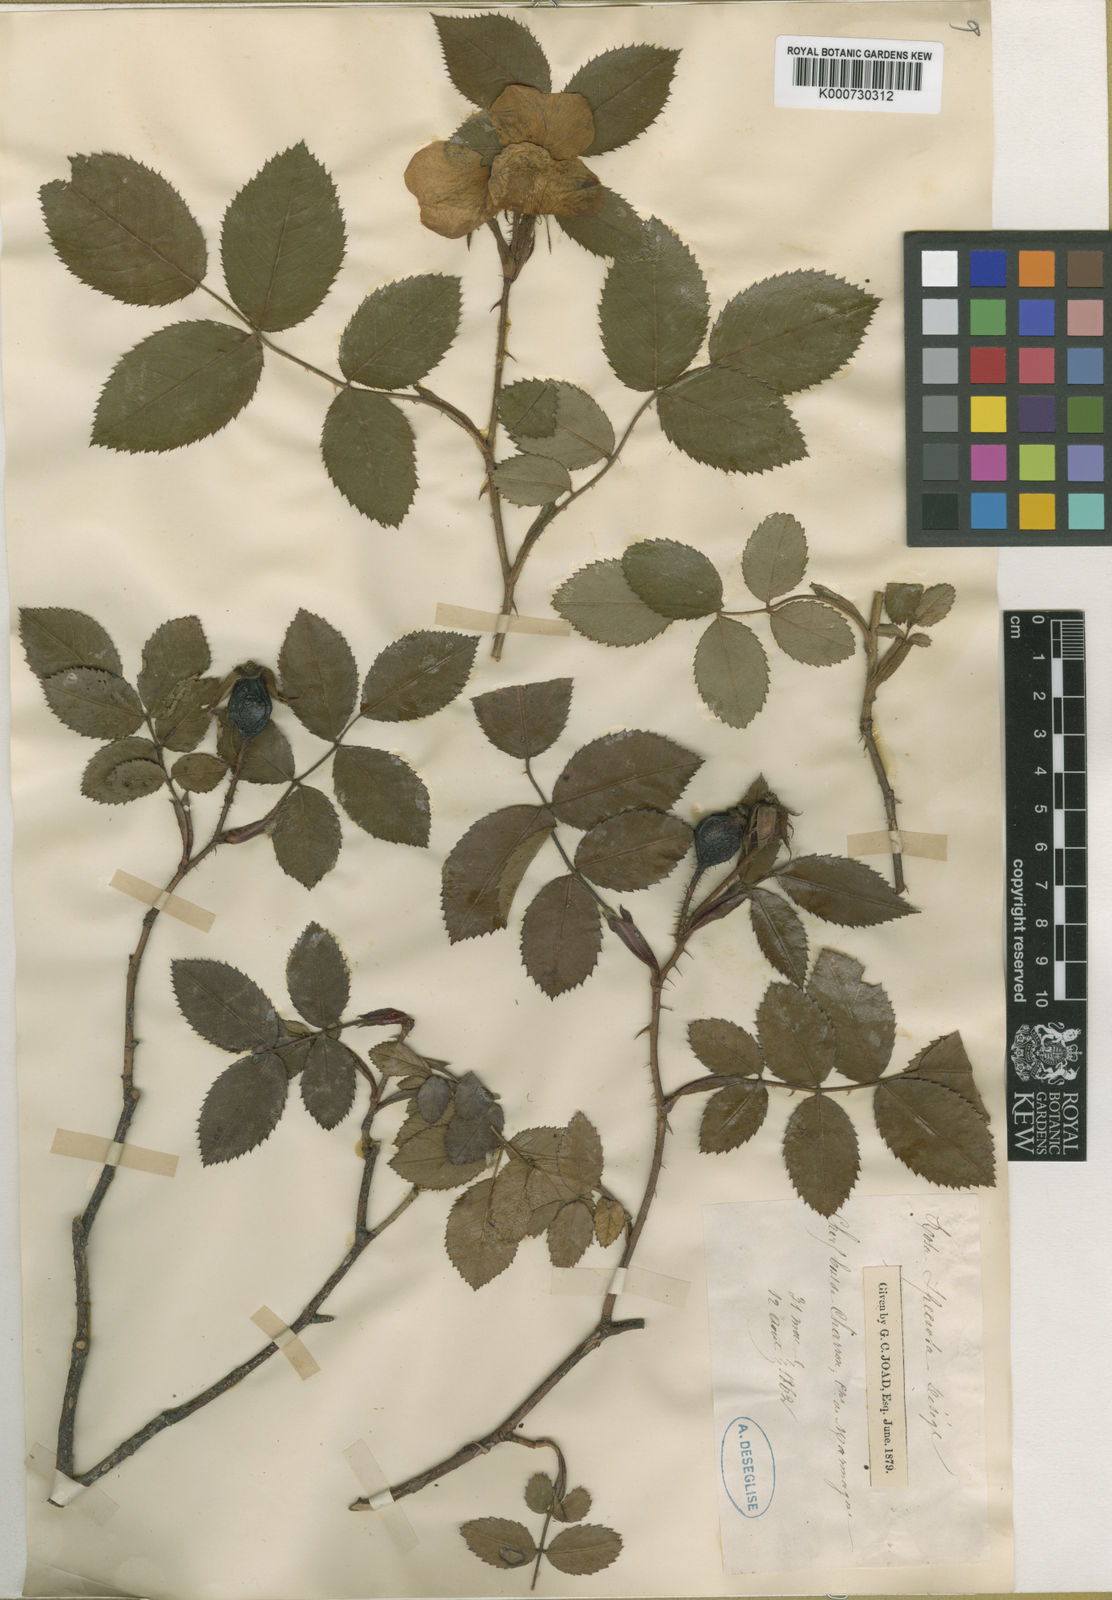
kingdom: Plantae
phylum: Tracheophyta
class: Magnoliopsida
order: Rosales
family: Rosaceae
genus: Rosa
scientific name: Rosa marginata
